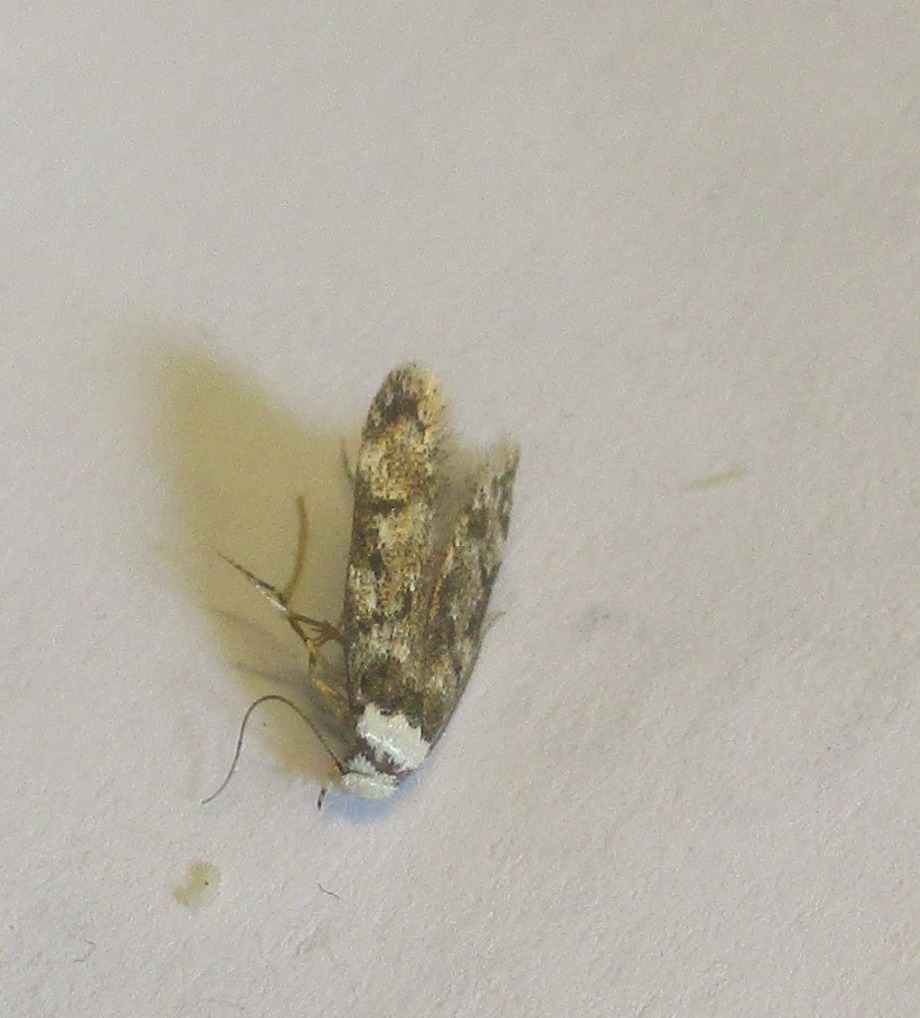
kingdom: Animalia
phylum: Arthropoda
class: Insecta
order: Lepidoptera
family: Oecophoridae
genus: Endrosis
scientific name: Endrosis sarcitrella
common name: Klistermøl
